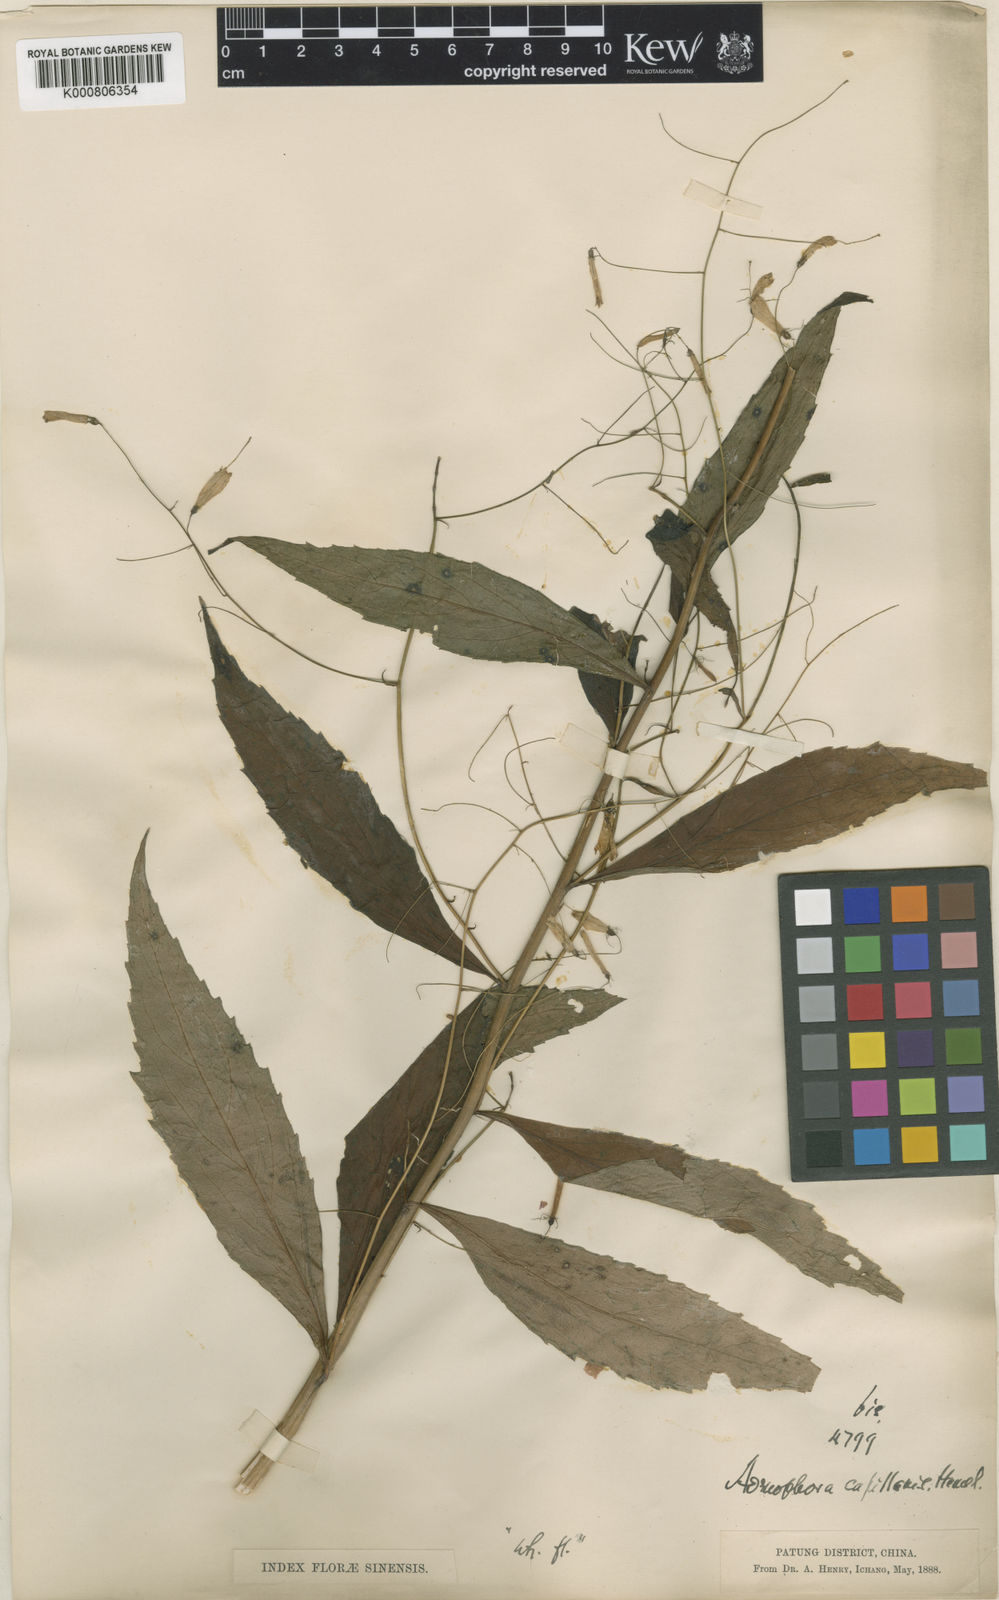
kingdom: Plantae
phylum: Tracheophyta
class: Magnoliopsida
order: Asterales
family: Campanulaceae
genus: Adenophora
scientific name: Adenophora capillaris
